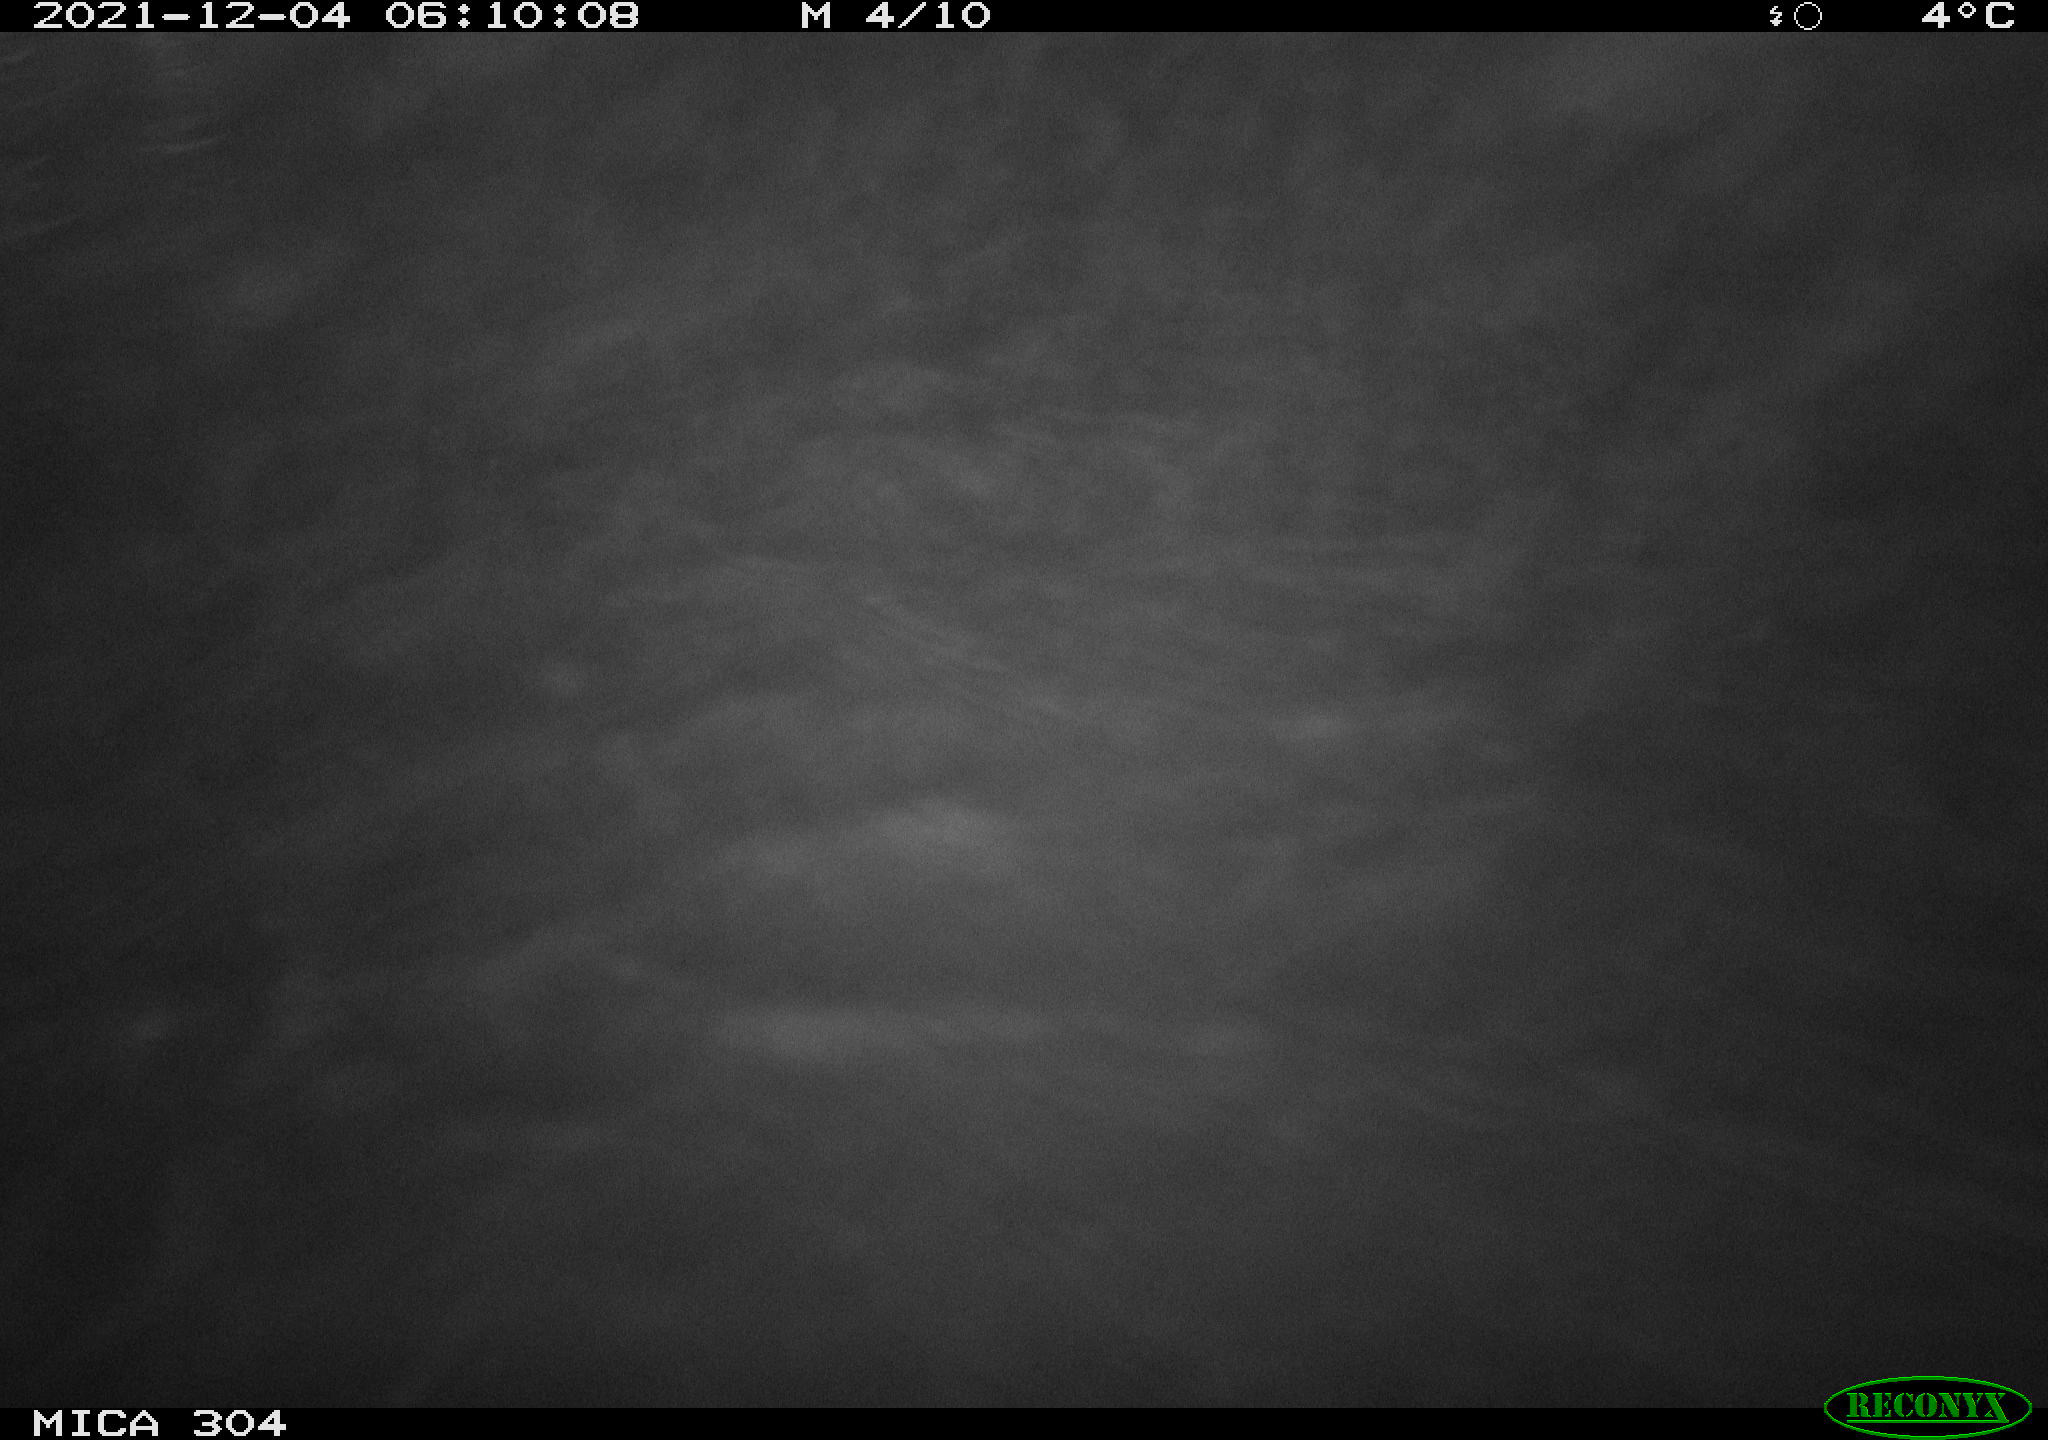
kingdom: Animalia
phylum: Chordata
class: Mammalia
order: Rodentia
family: Muridae
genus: Rattus
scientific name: Rattus norvegicus
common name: Brown rat
